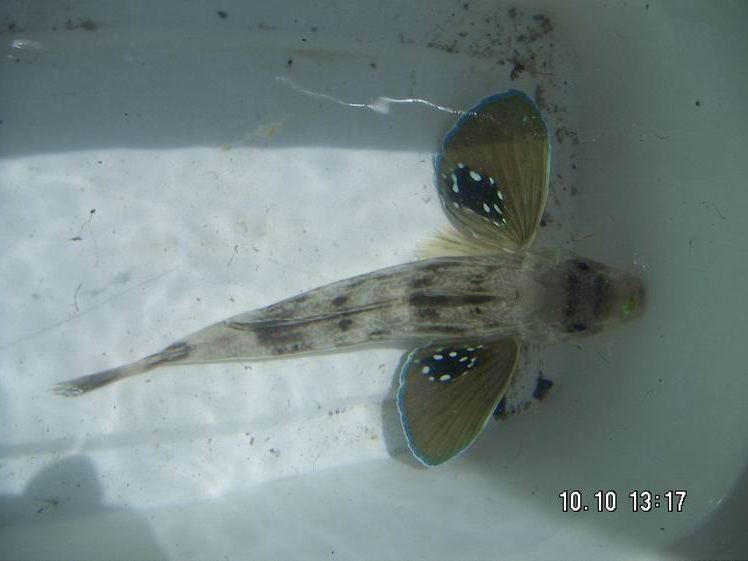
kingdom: Animalia
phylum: Chordata
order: Scorpaeniformes
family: Triglidae
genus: Chelidonichthys
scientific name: Chelidonichthys kumu
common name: Bluefin gurnard
